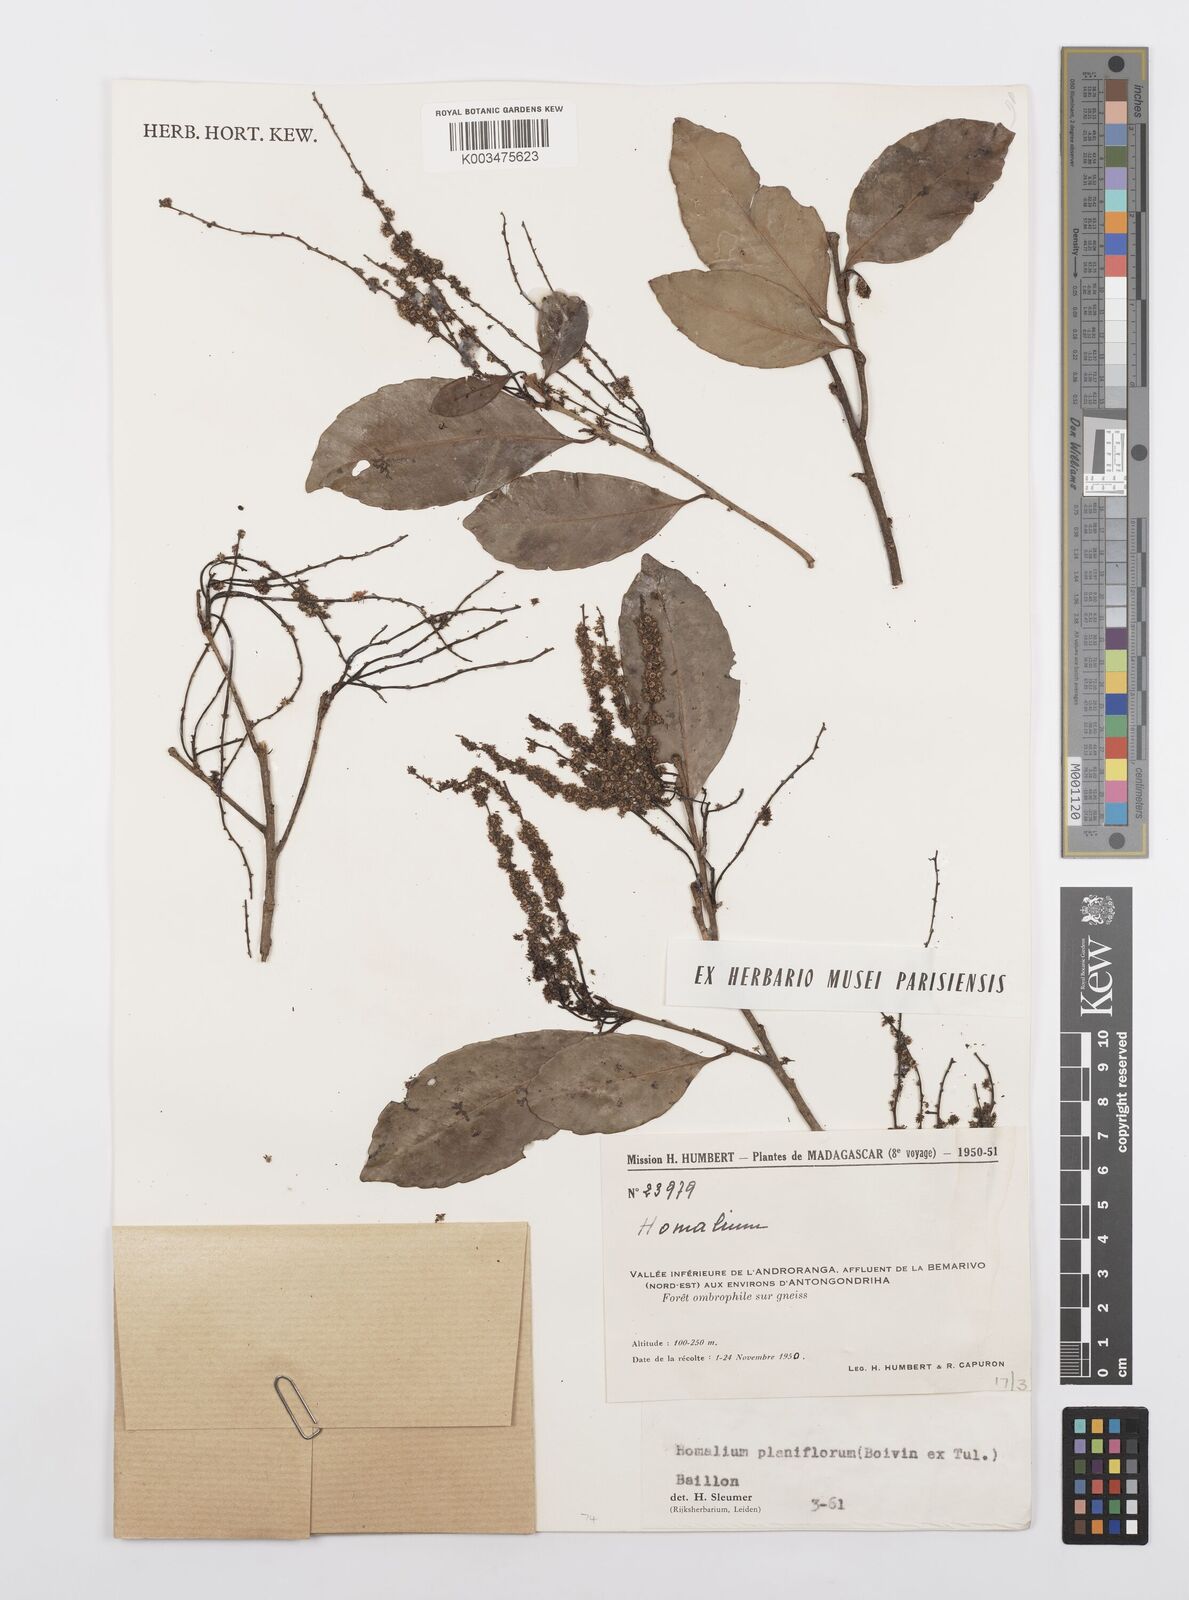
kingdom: Plantae
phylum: Tracheophyta
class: Magnoliopsida
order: Malpighiales
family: Salicaceae
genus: Homalium
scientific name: Homalium planiflorum
